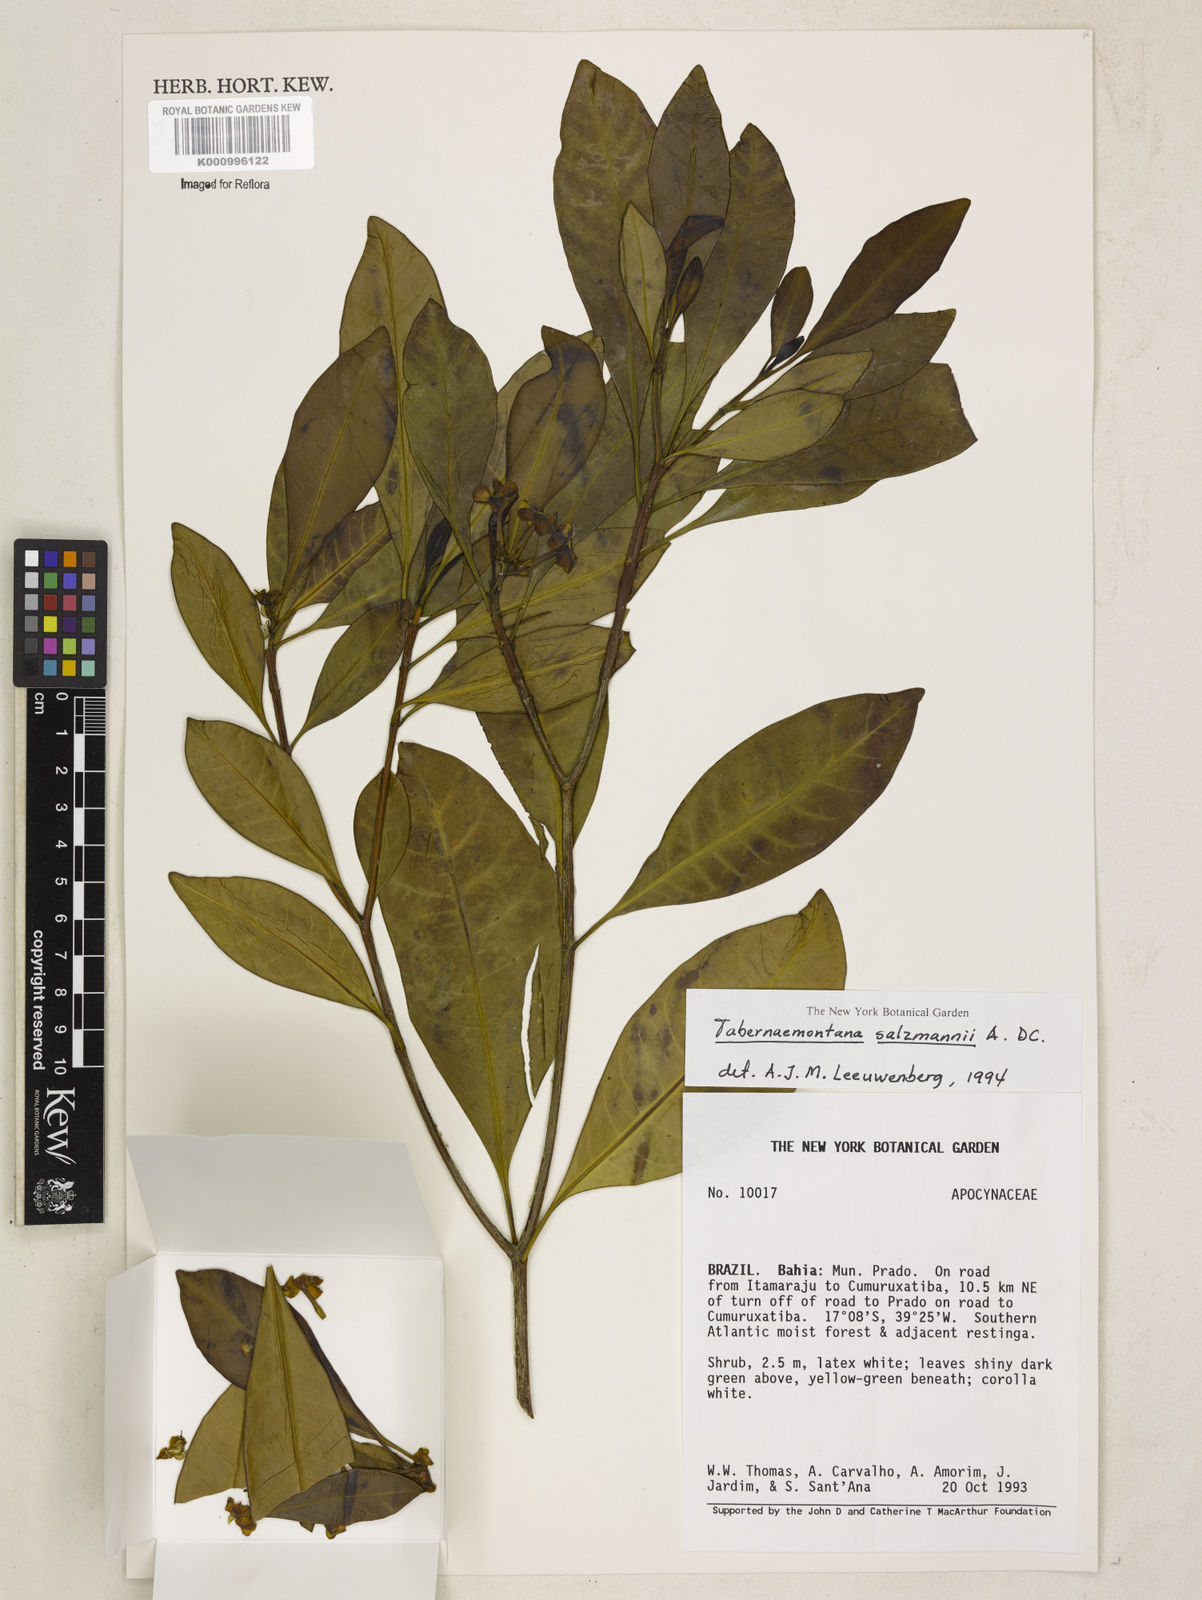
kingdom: Plantae
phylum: Tracheophyta
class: Magnoliopsida
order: Gentianales
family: Apocynaceae
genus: Tabernaemontana
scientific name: Tabernaemontana salzmannii
